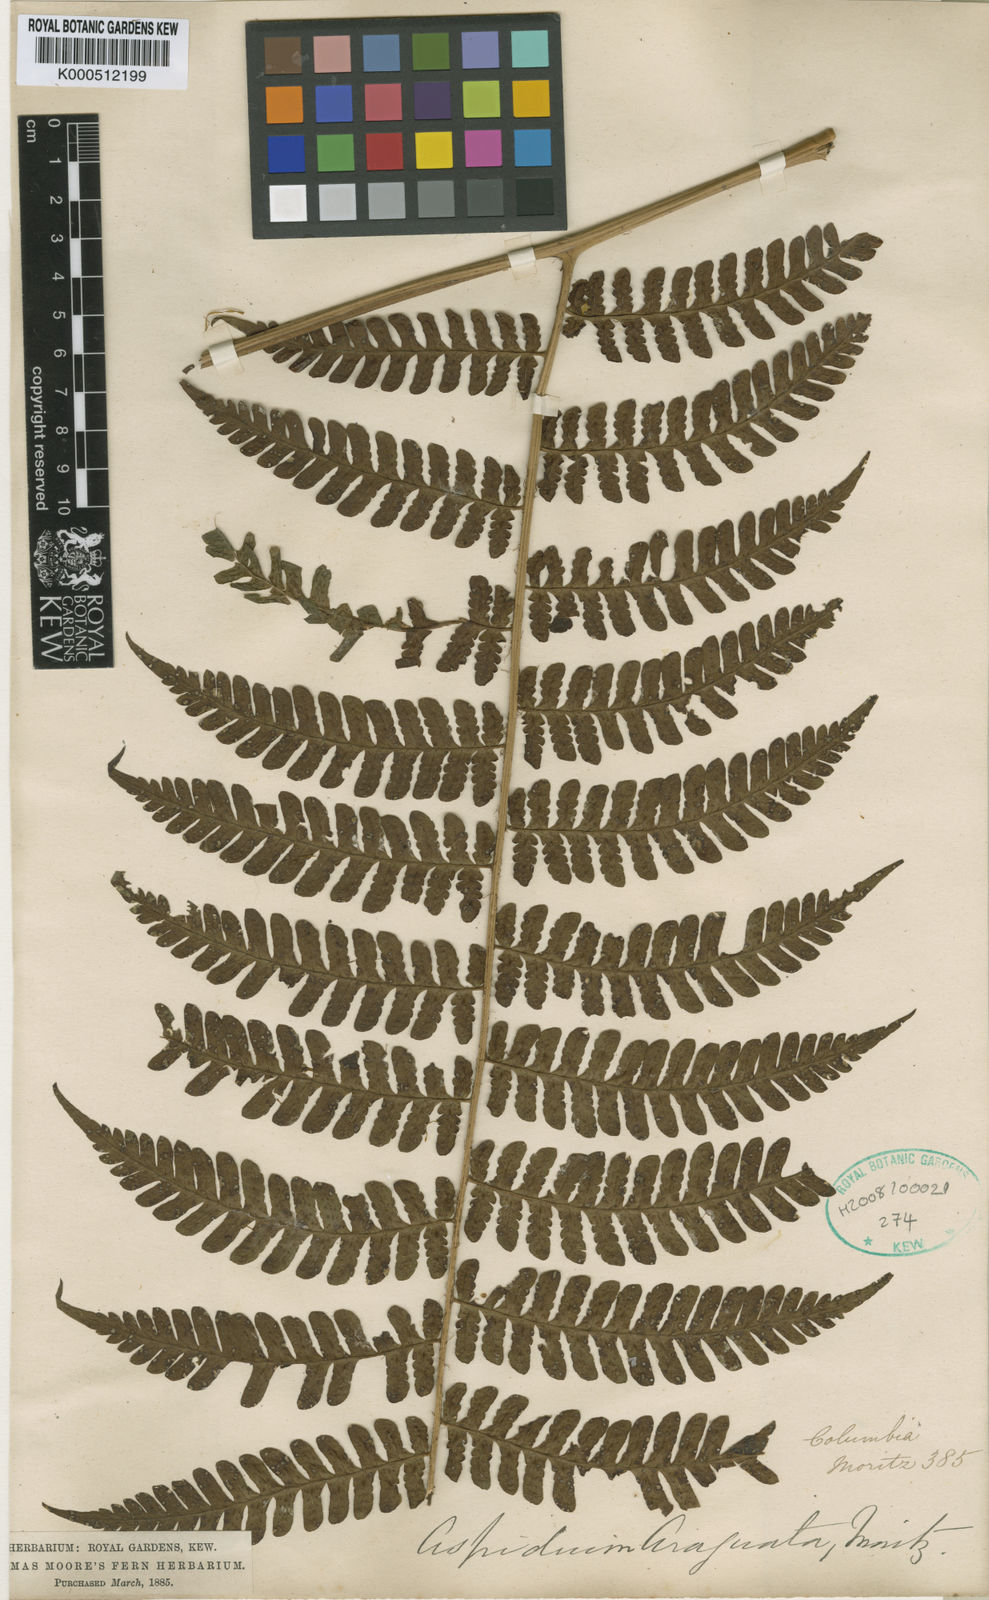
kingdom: Plantae
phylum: Tracheophyta
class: Polypodiopsida
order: Polypodiales
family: Dryopteridaceae
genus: Megalastrum
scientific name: Megalastrum subincisum
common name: Jagleaf junglefern
